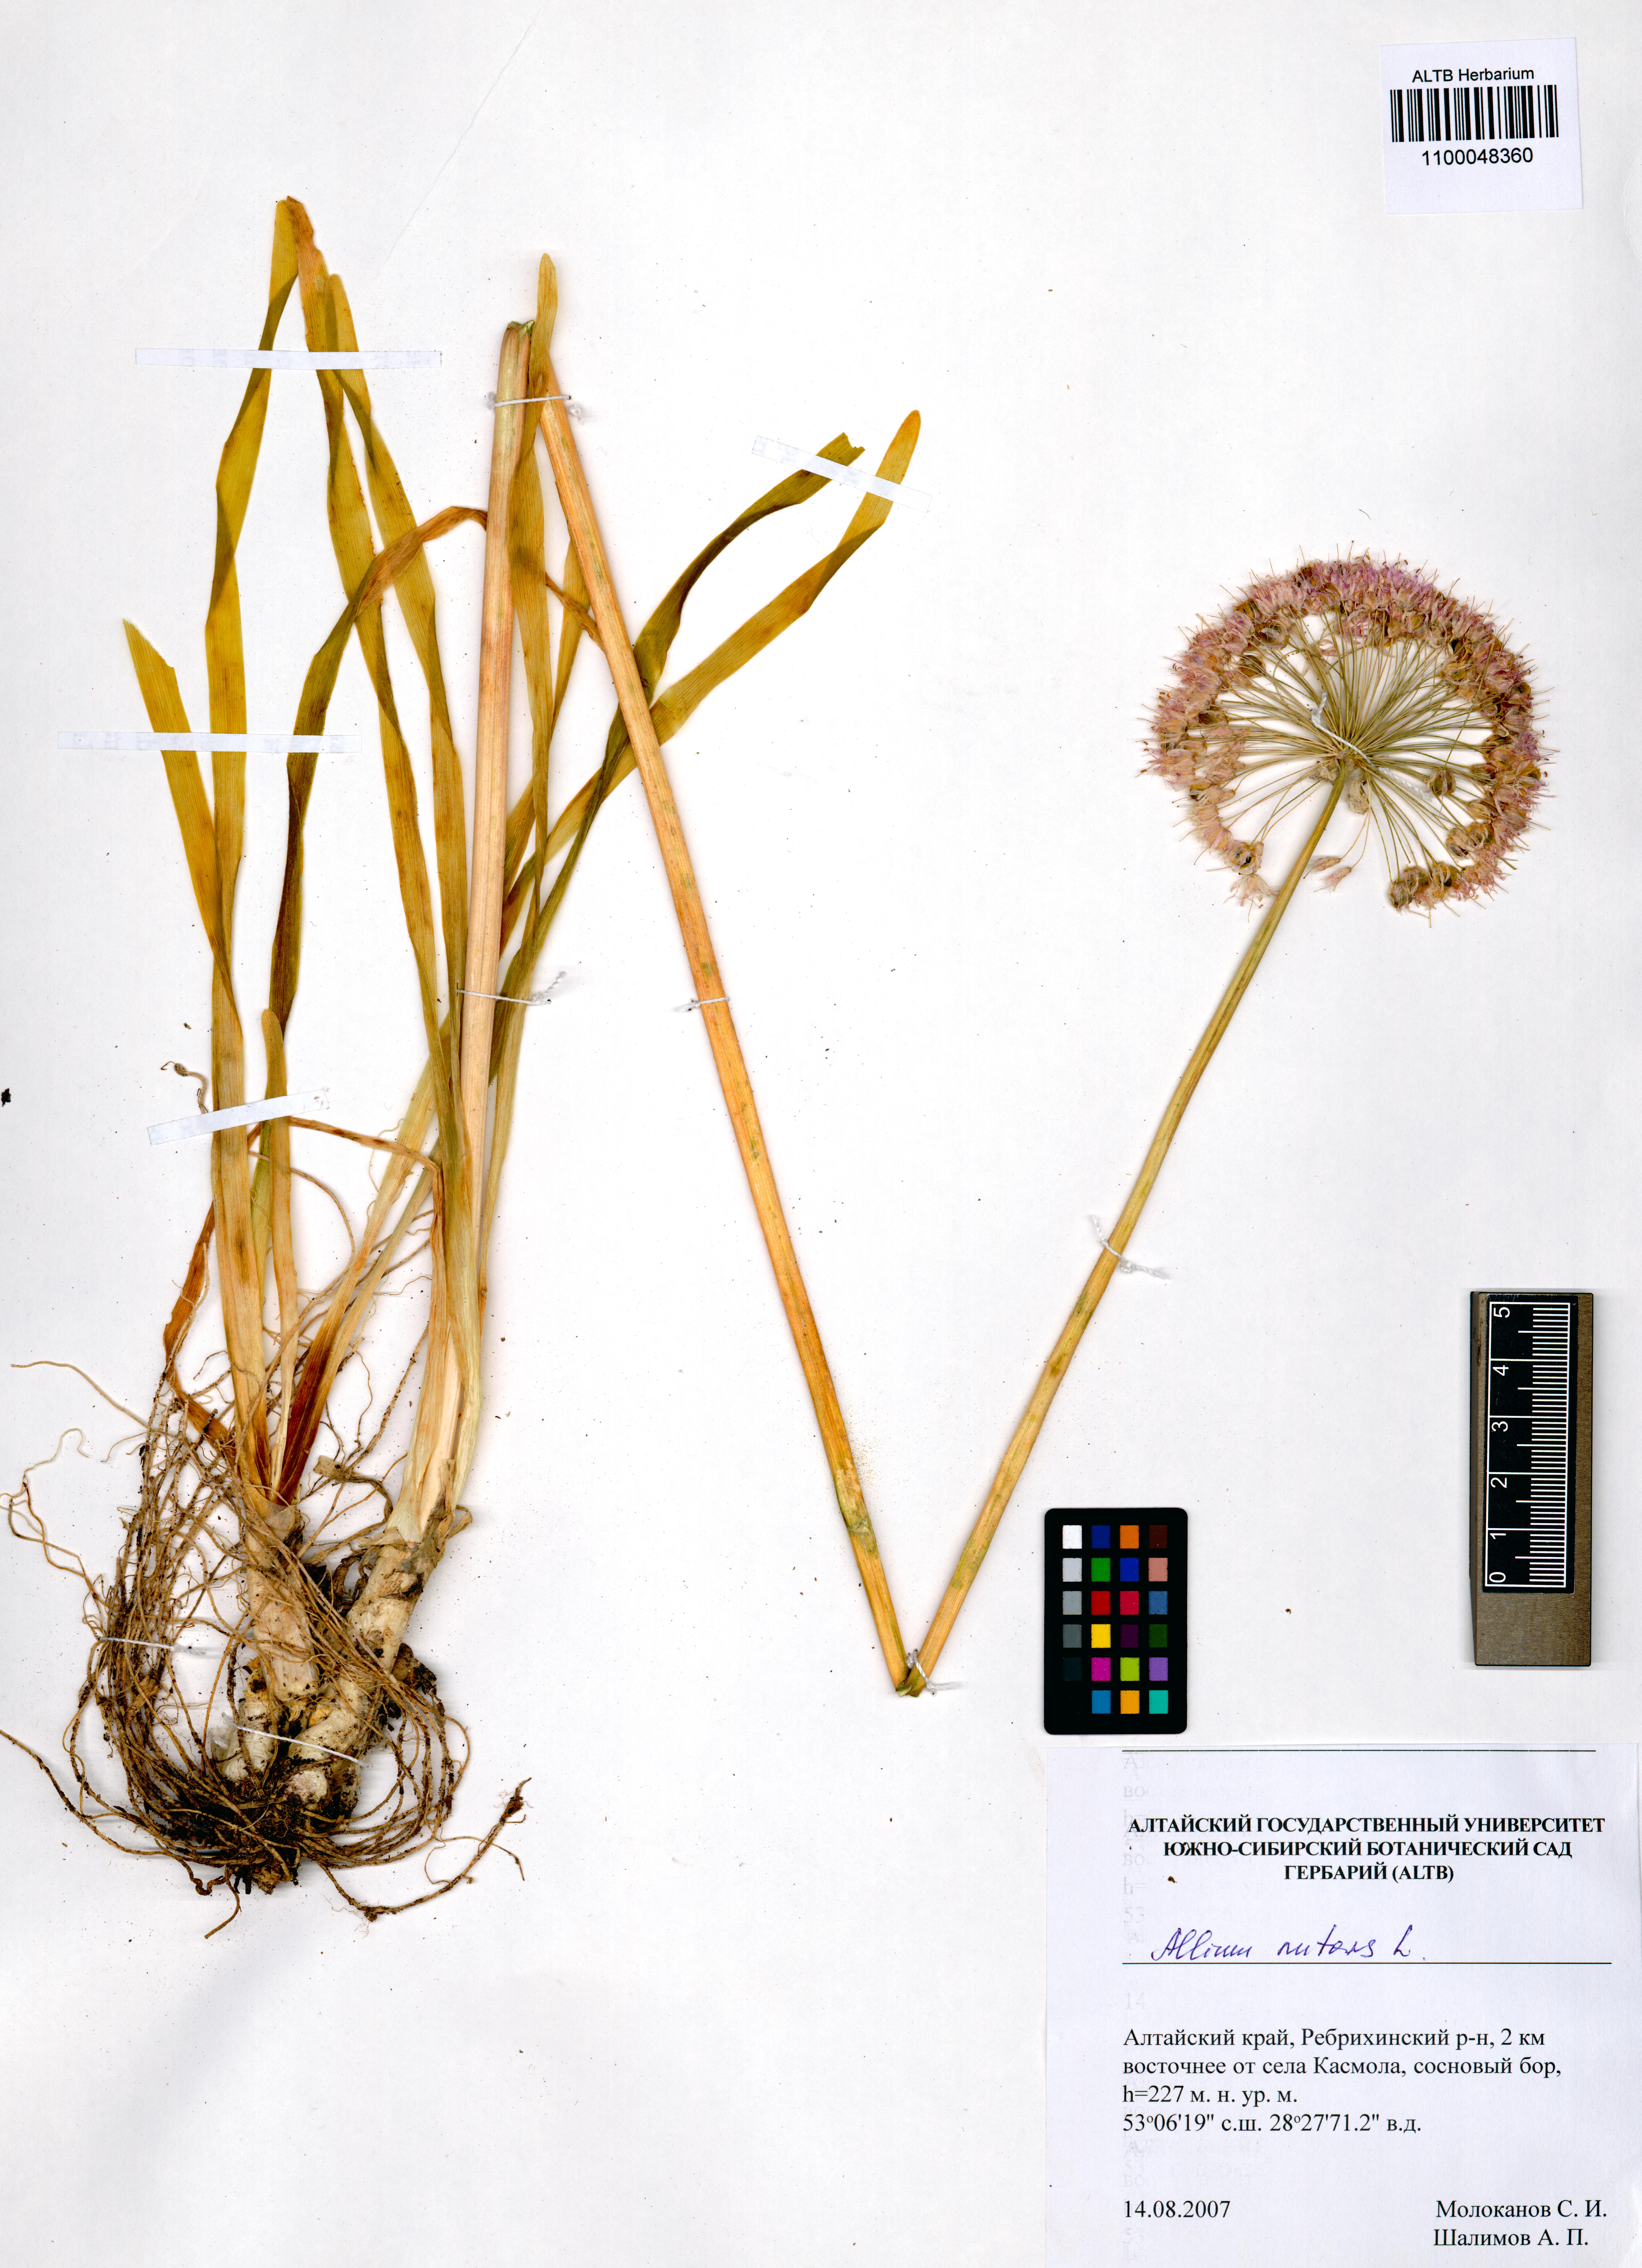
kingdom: Plantae
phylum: Tracheophyta
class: Liliopsida
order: Asparagales
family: Amaryllidaceae
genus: Allium
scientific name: Allium nutans
